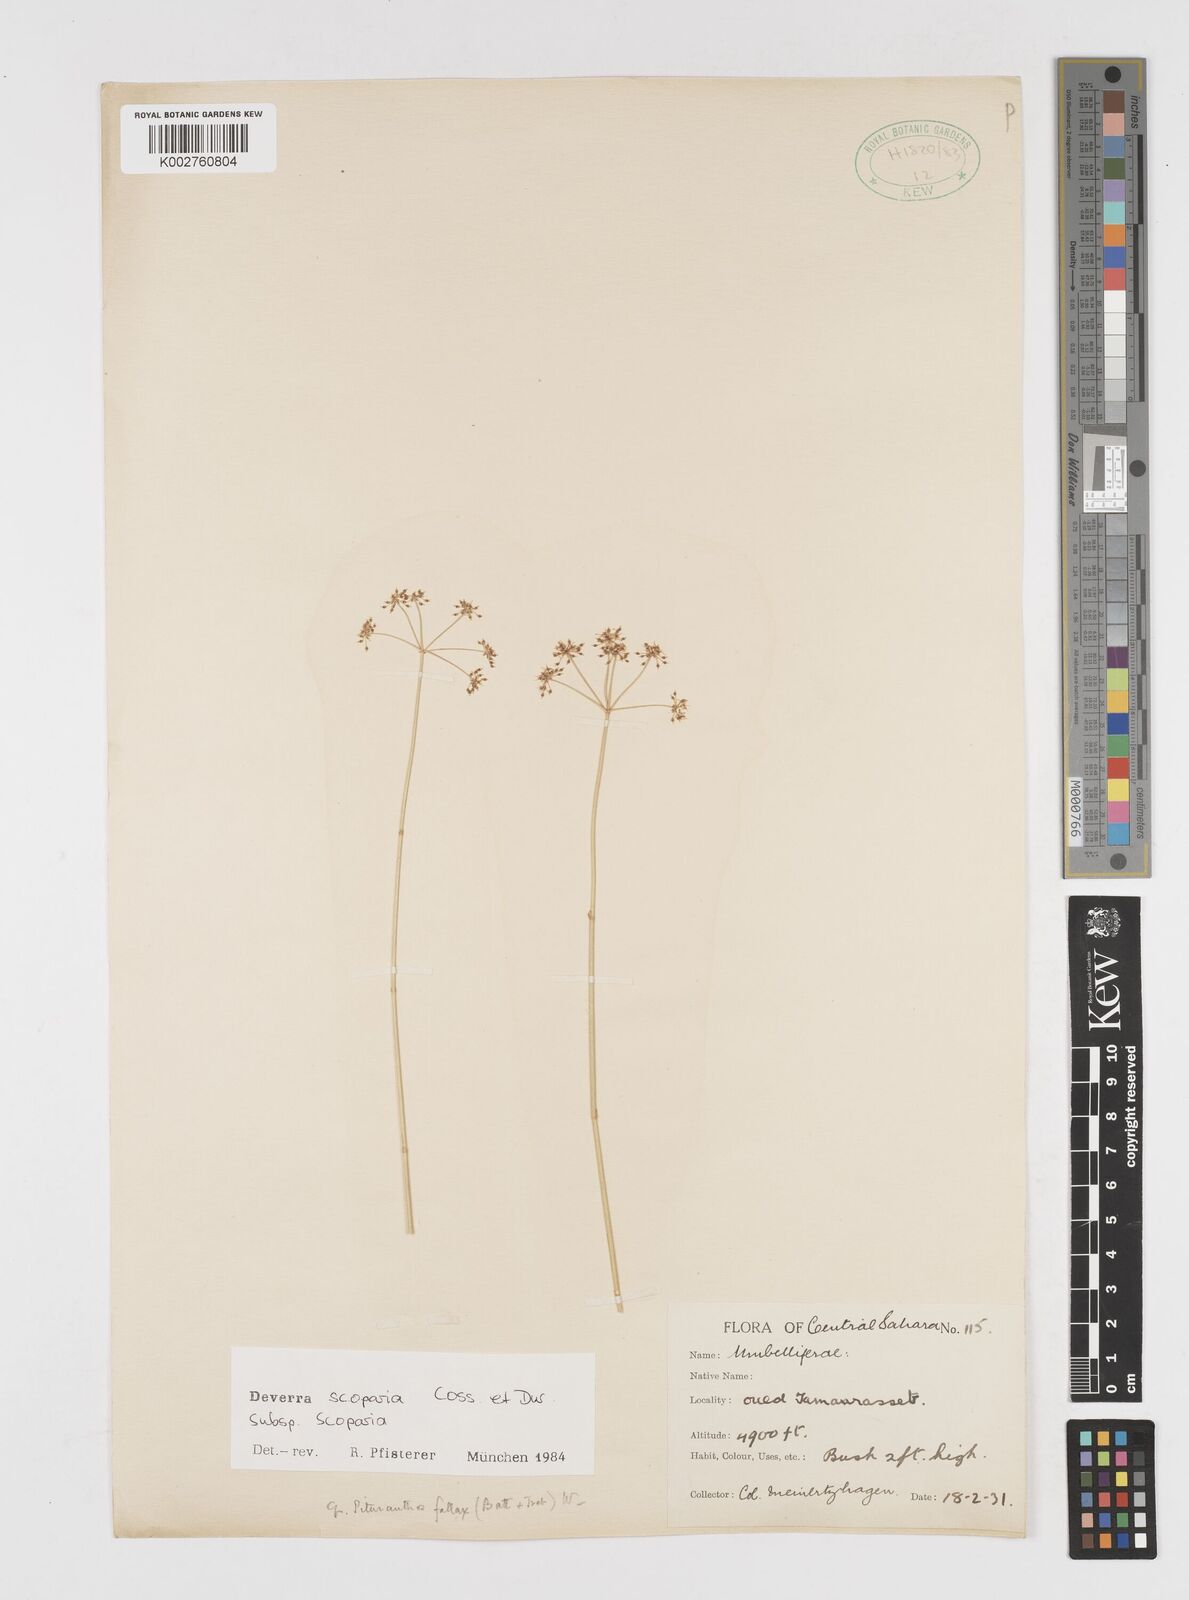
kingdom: Plantae
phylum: Tracheophyta
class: Magnoliopsida
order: Apiales
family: Apiaceae
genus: Deverra
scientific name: Deverra scoparia
